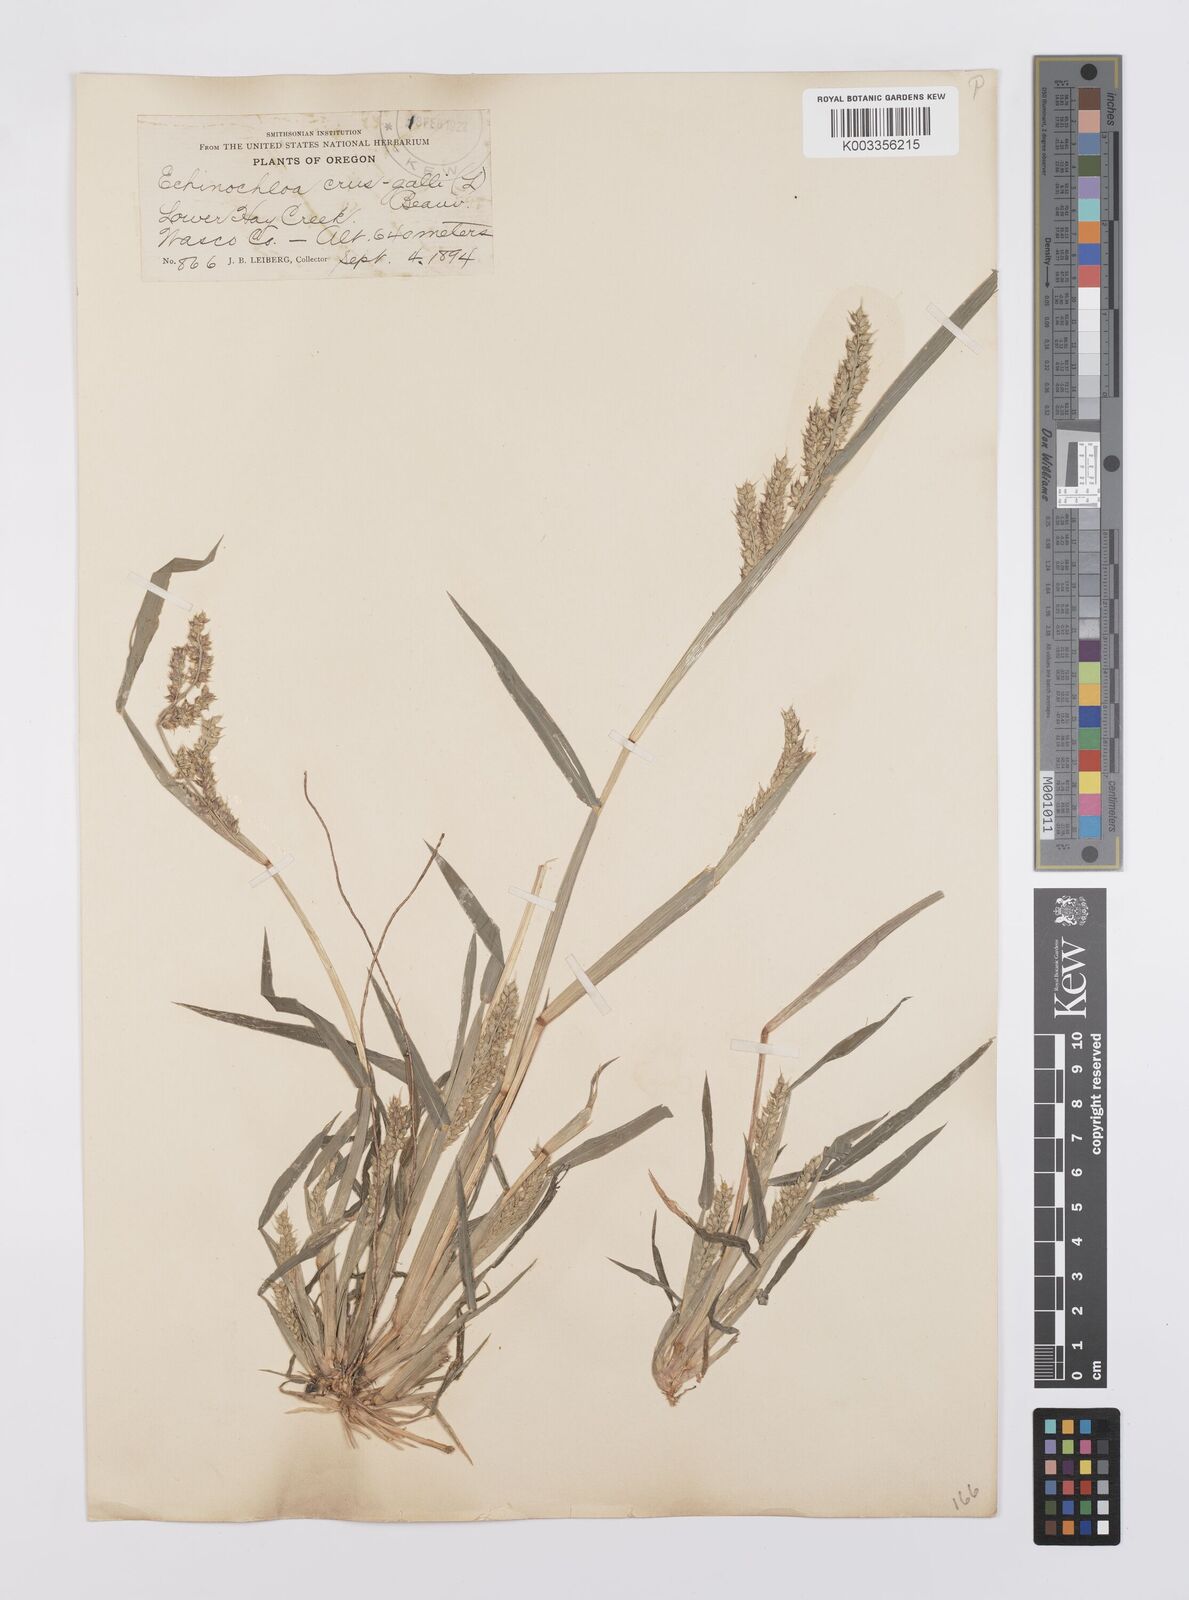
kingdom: Plantae
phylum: Tracheophyta
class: Liliopsida
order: Poales
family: Poaceae
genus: Echinochloa
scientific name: Echinochloa crus-galli
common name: Cockspur
